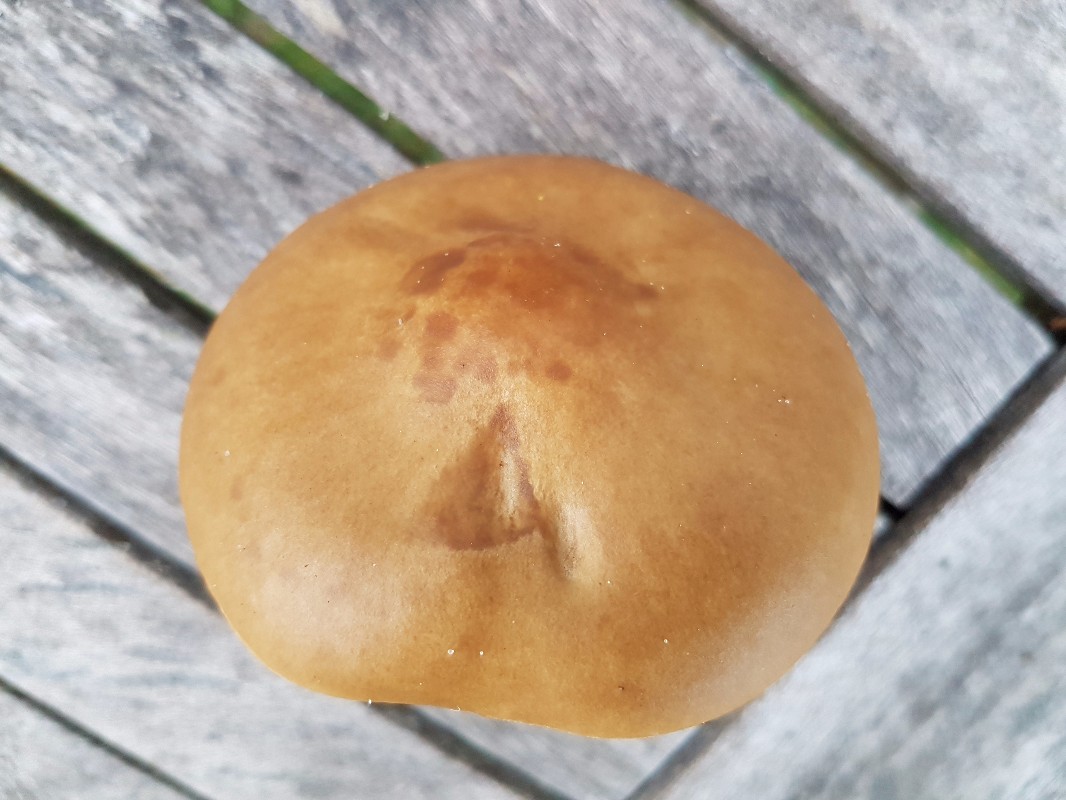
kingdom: Fungi
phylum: Basidiomycota
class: Agaricomycetes
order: Agaricales
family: Tricholomataceae
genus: Melanoleuca
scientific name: Melanoleuca cognata
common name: gyldengrå munkehat
